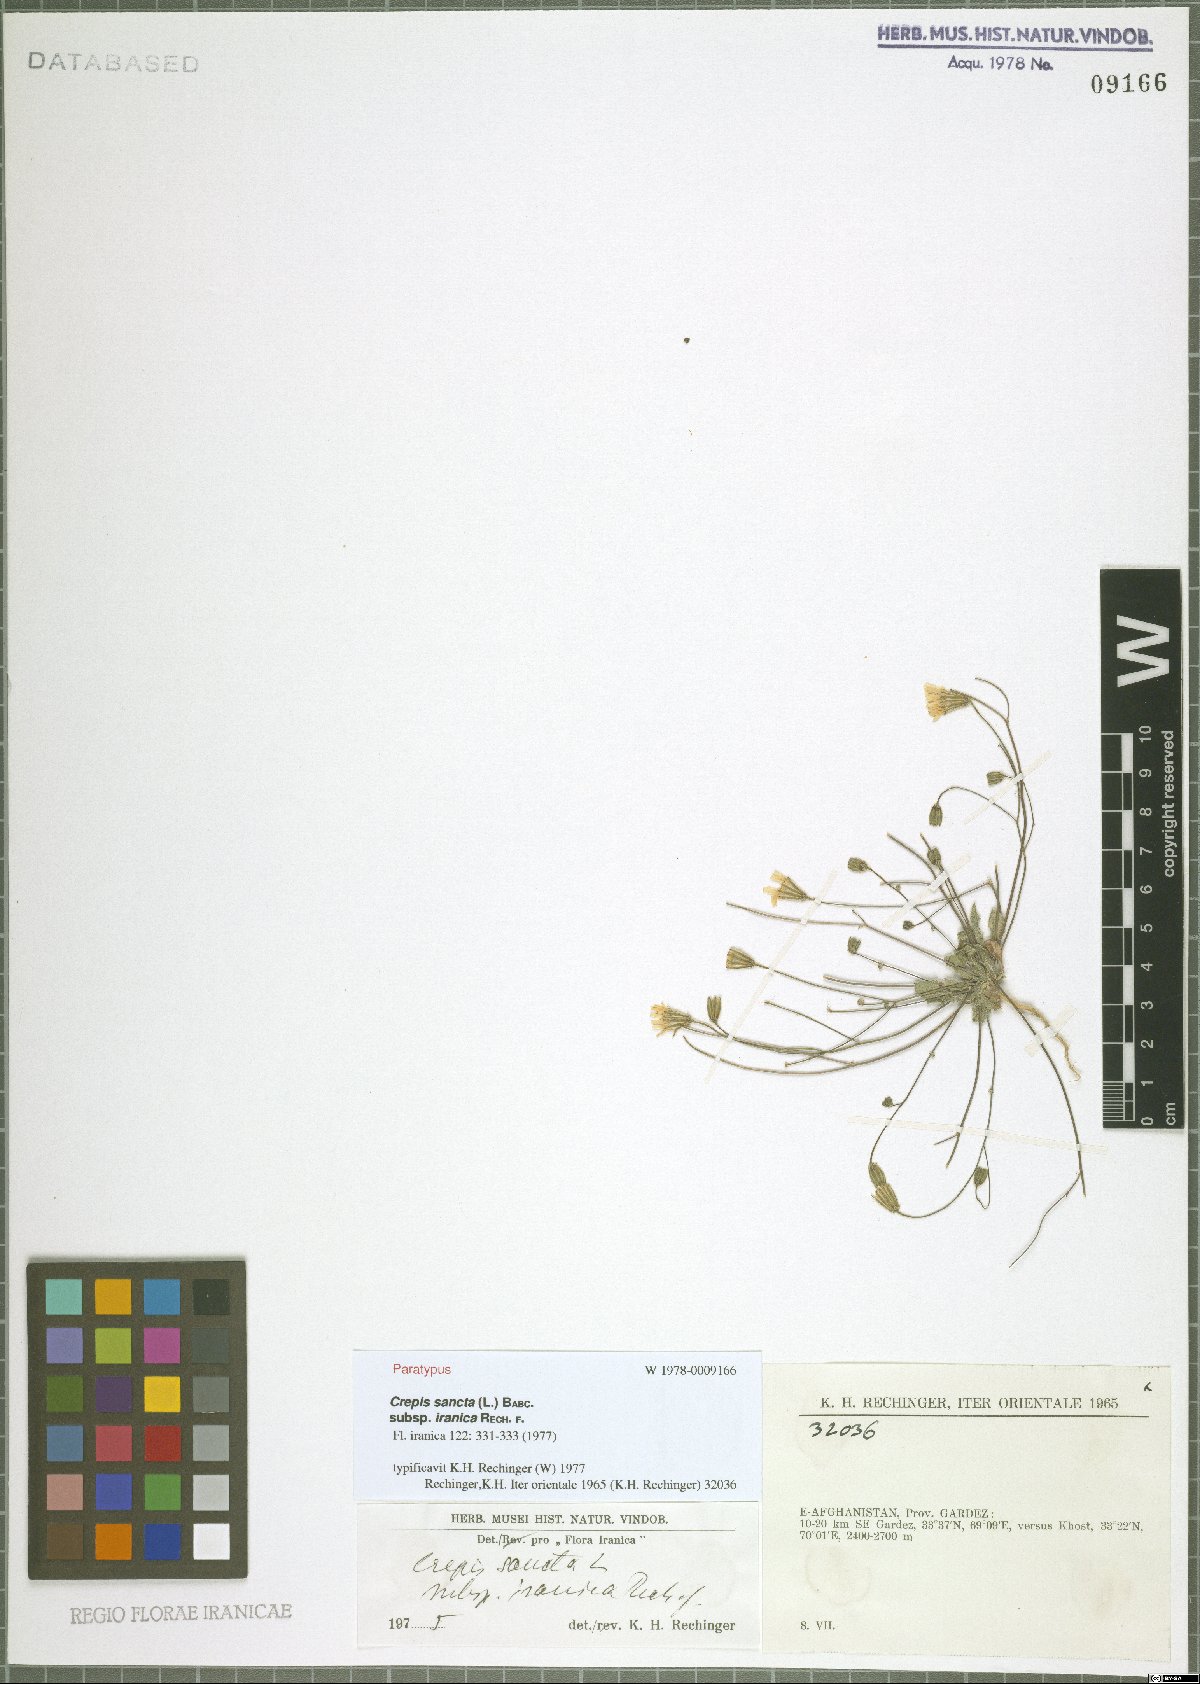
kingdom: Plantae
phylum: Tracheophyta
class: Magnoliopsida
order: Asterales
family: Asteraceae
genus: Crepis
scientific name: Crepis sancta
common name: Hawk's-beard
